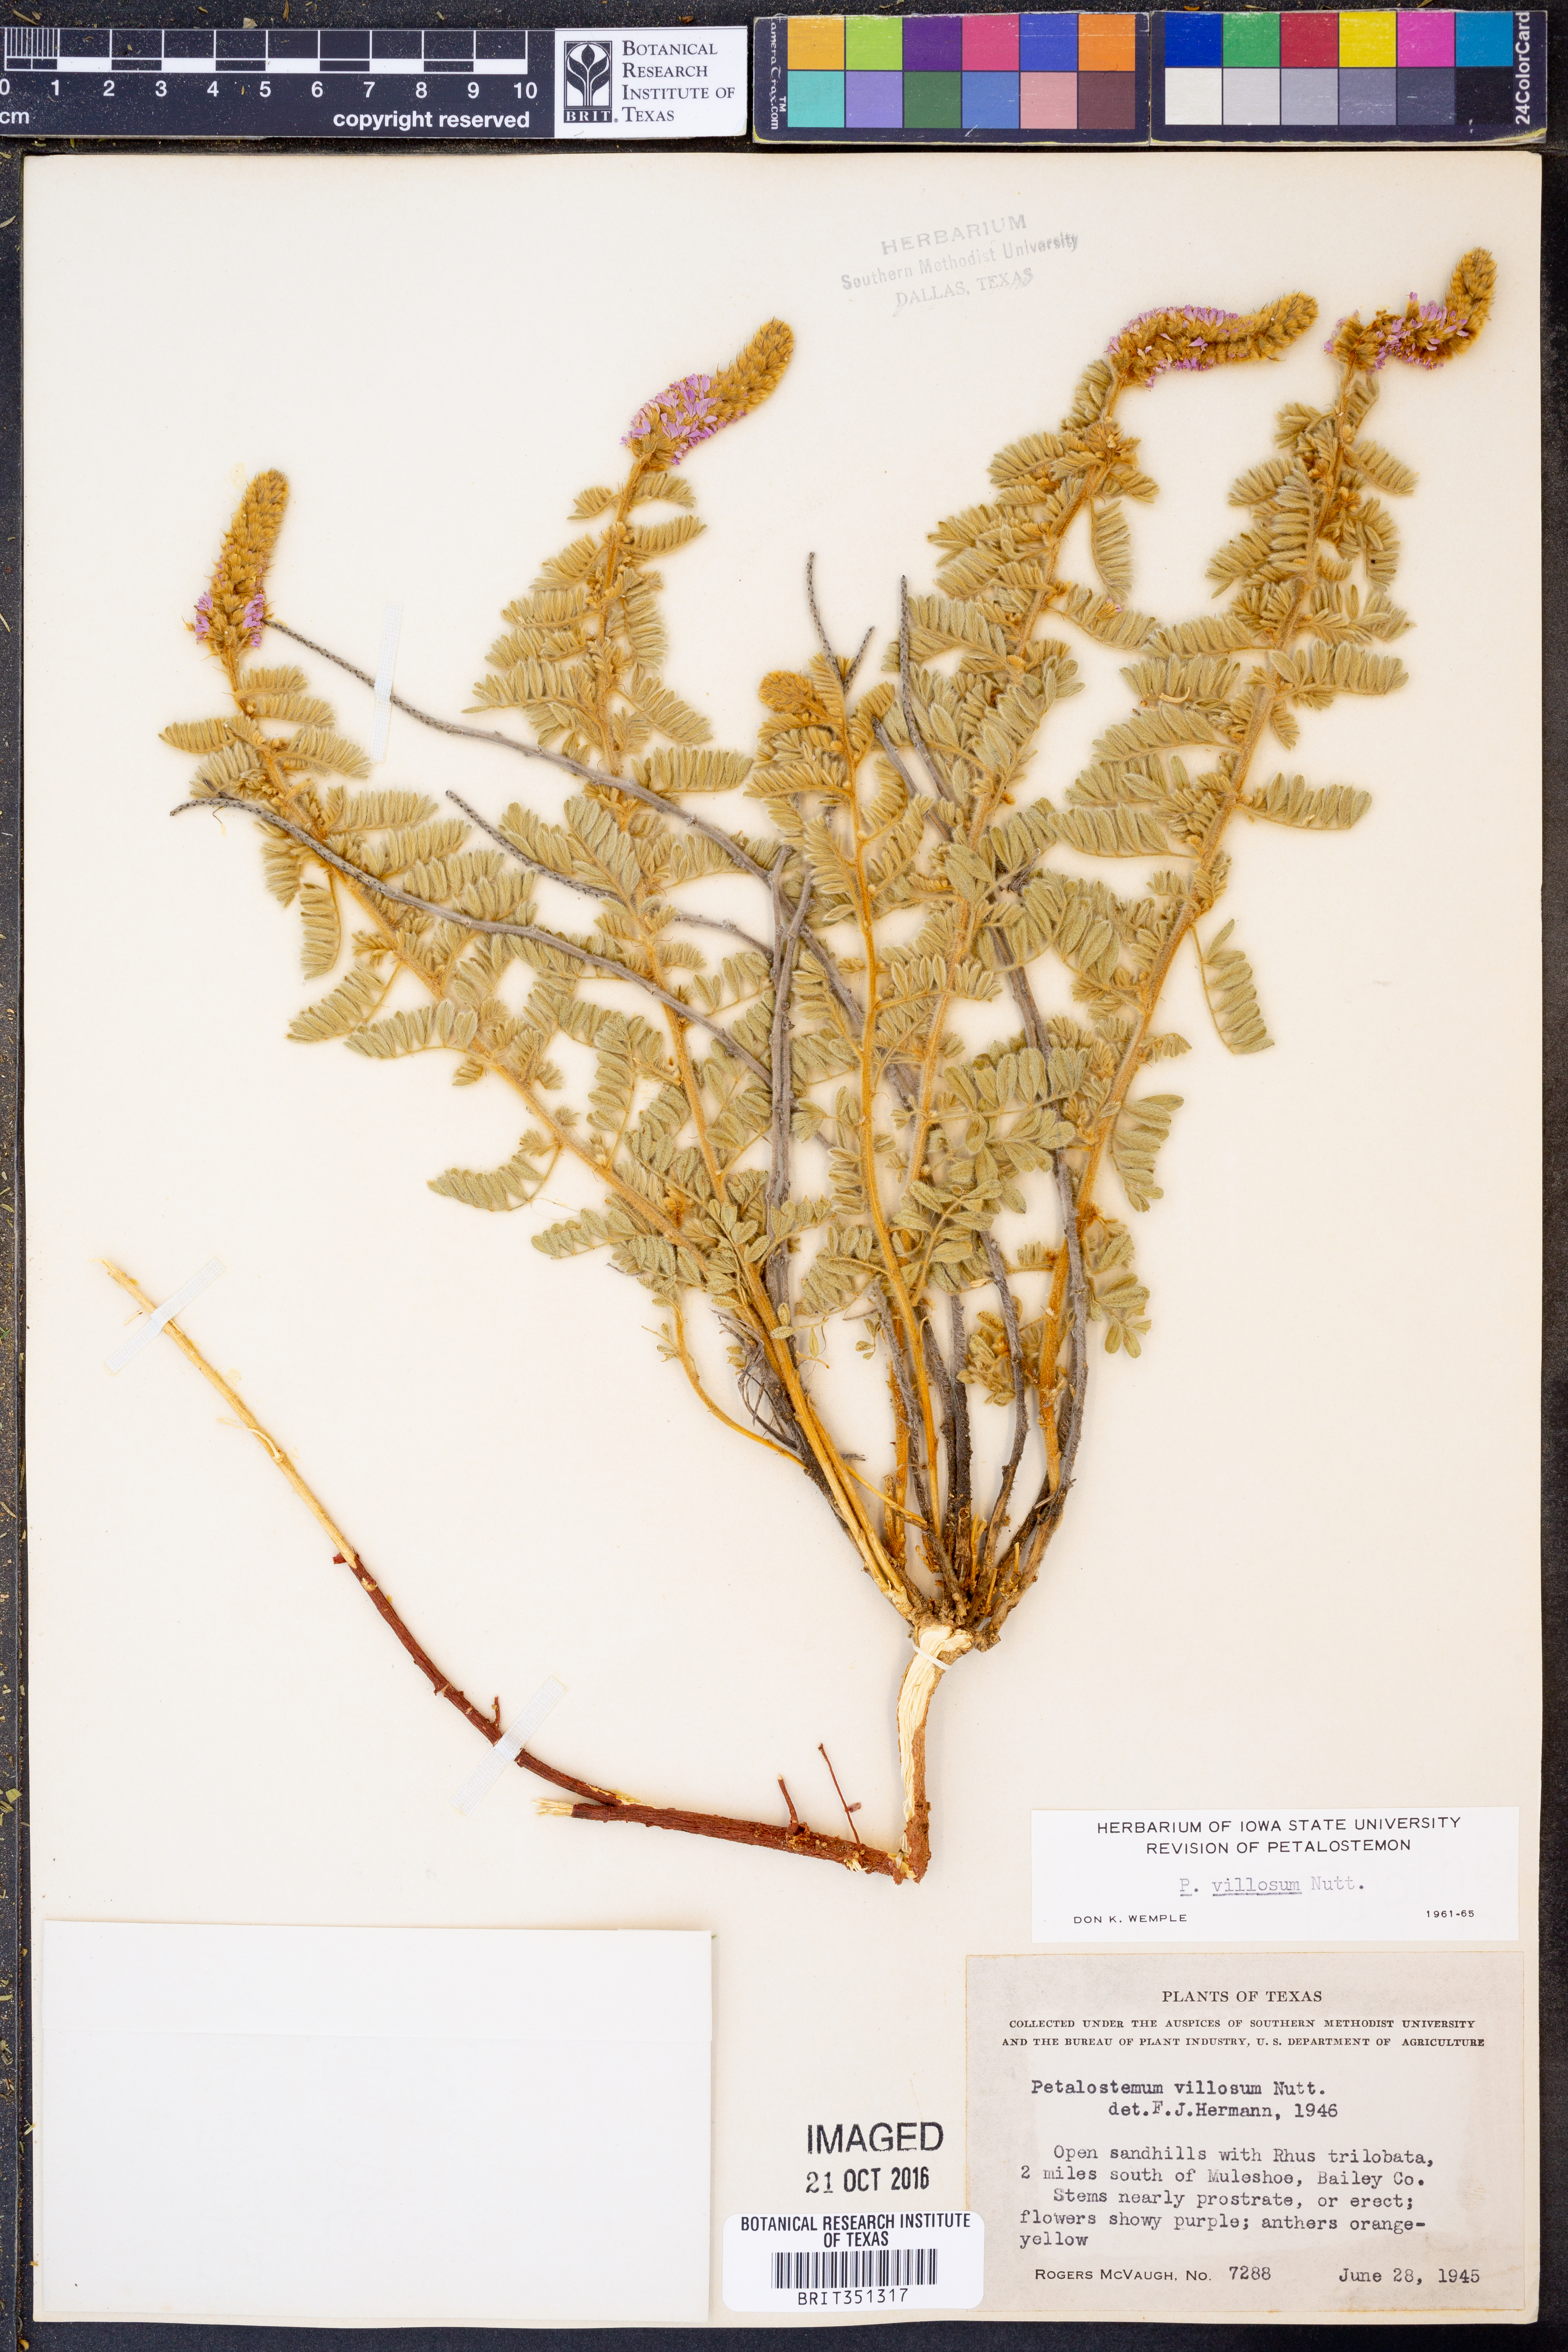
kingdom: Plantae
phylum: Tracheophyta
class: Magnoliopsida
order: Fabales
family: Fabaceae
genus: Dalea
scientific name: Dalea villosa
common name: Silky prairie-clover
